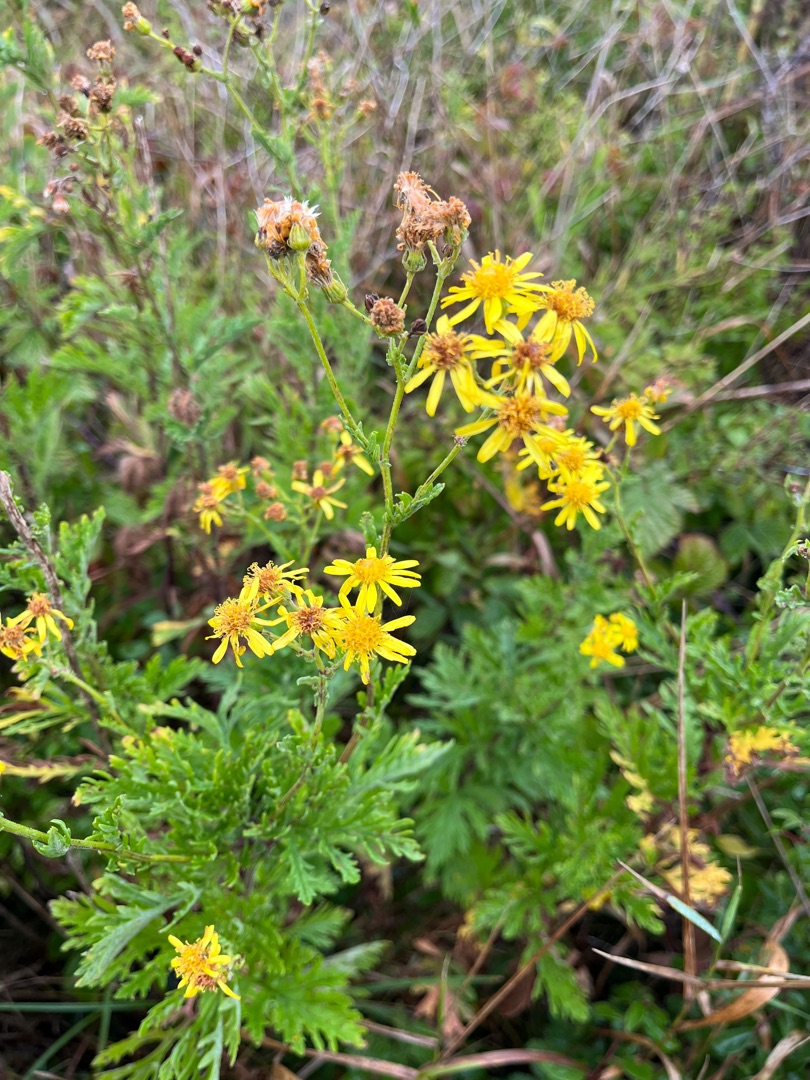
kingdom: Plantae
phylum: Tracheophyta
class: Magnoliopsida
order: Asterales
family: Asteraceae
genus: Jacobaea
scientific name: Jacobaea erucifolia
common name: Smalfliget brandbæger
